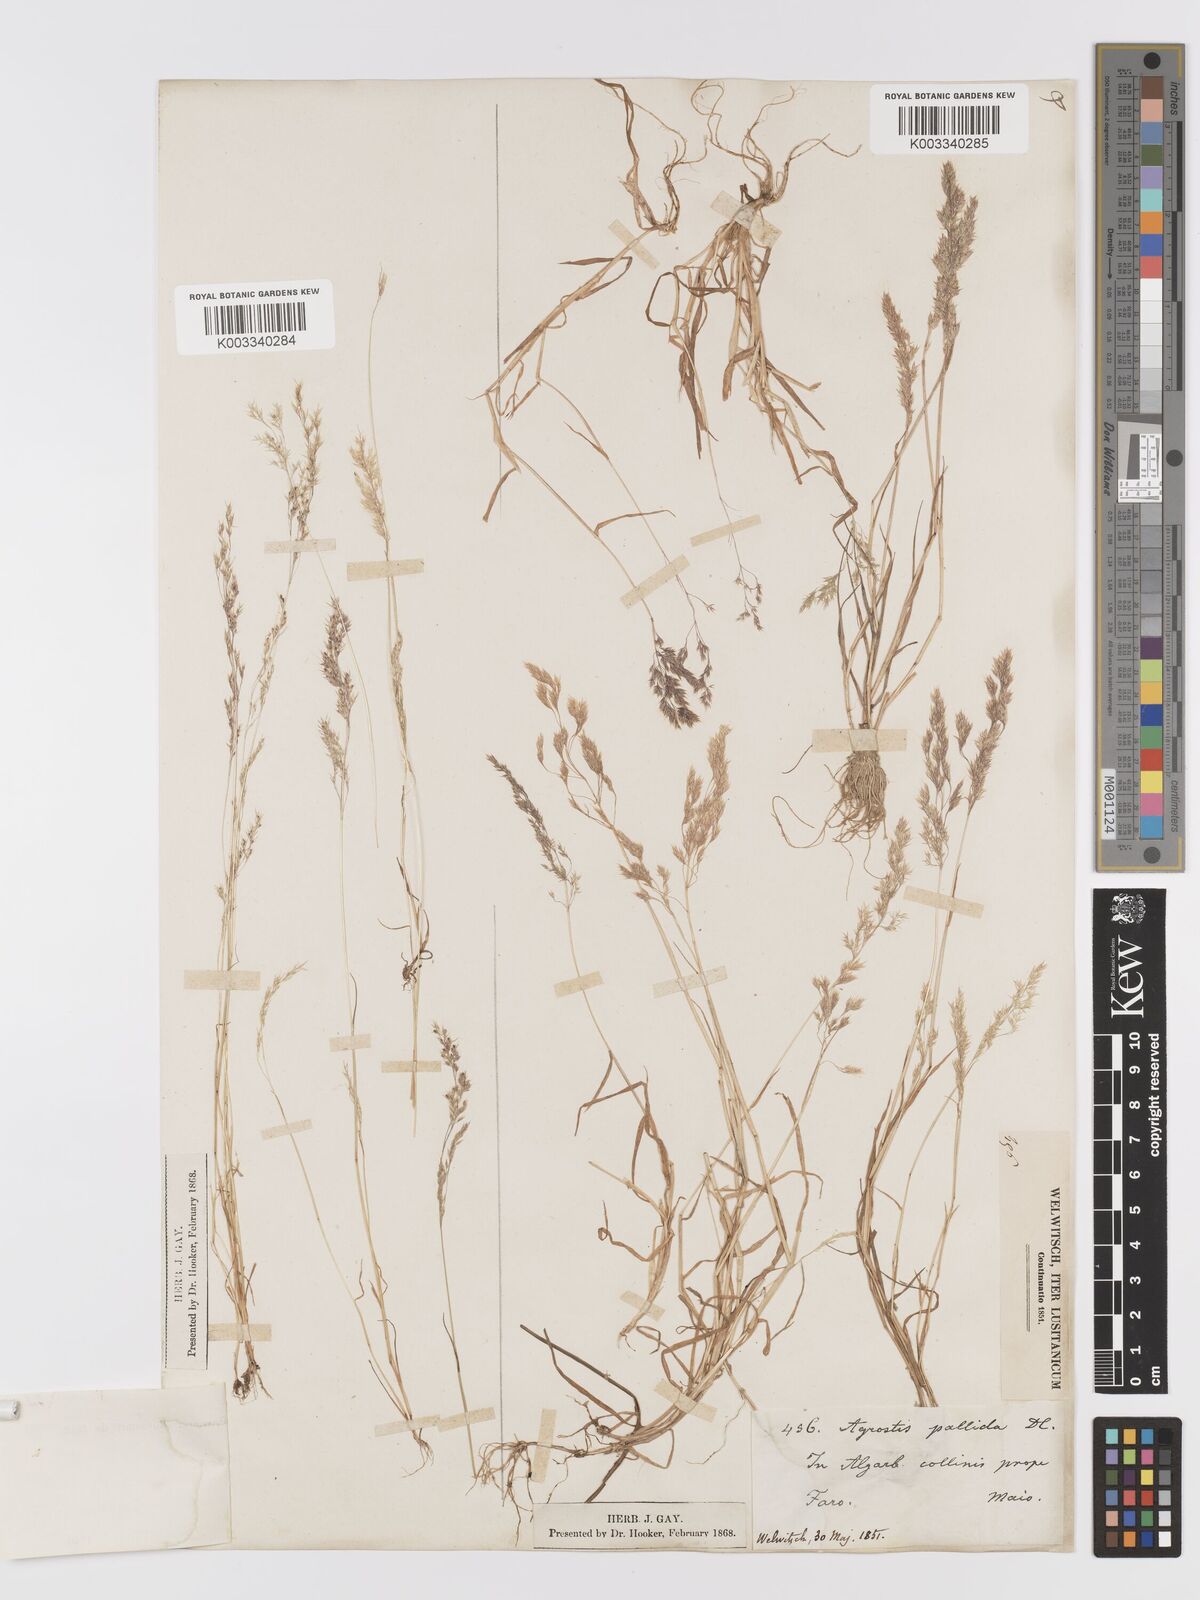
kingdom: Plantae
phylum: Tracheophyta
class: Liliopsida
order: Poales
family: Poaceae
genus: Agrostis
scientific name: Agrostis pourretii
